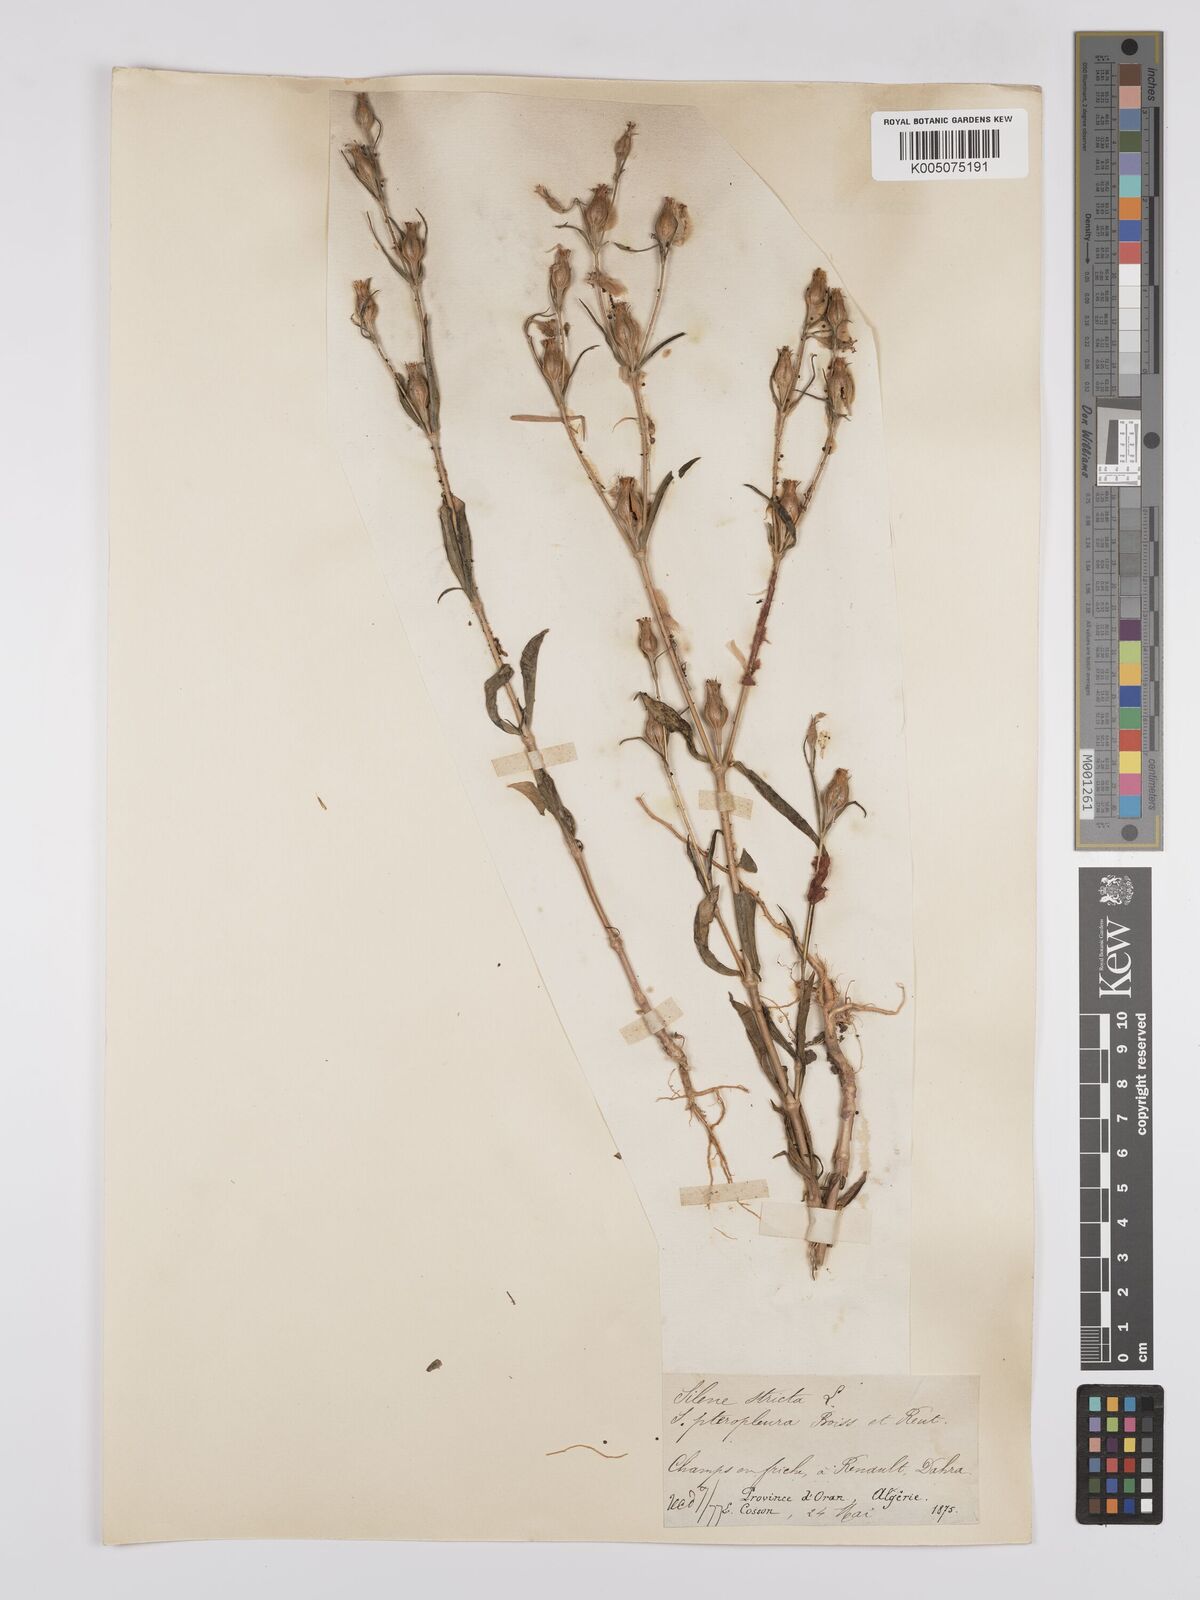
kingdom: Plantae
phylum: Tracheophyta
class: Magnoliopsida
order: Caryophyllales
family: Caryophyllaceae
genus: Silene
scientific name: Silene stricta
